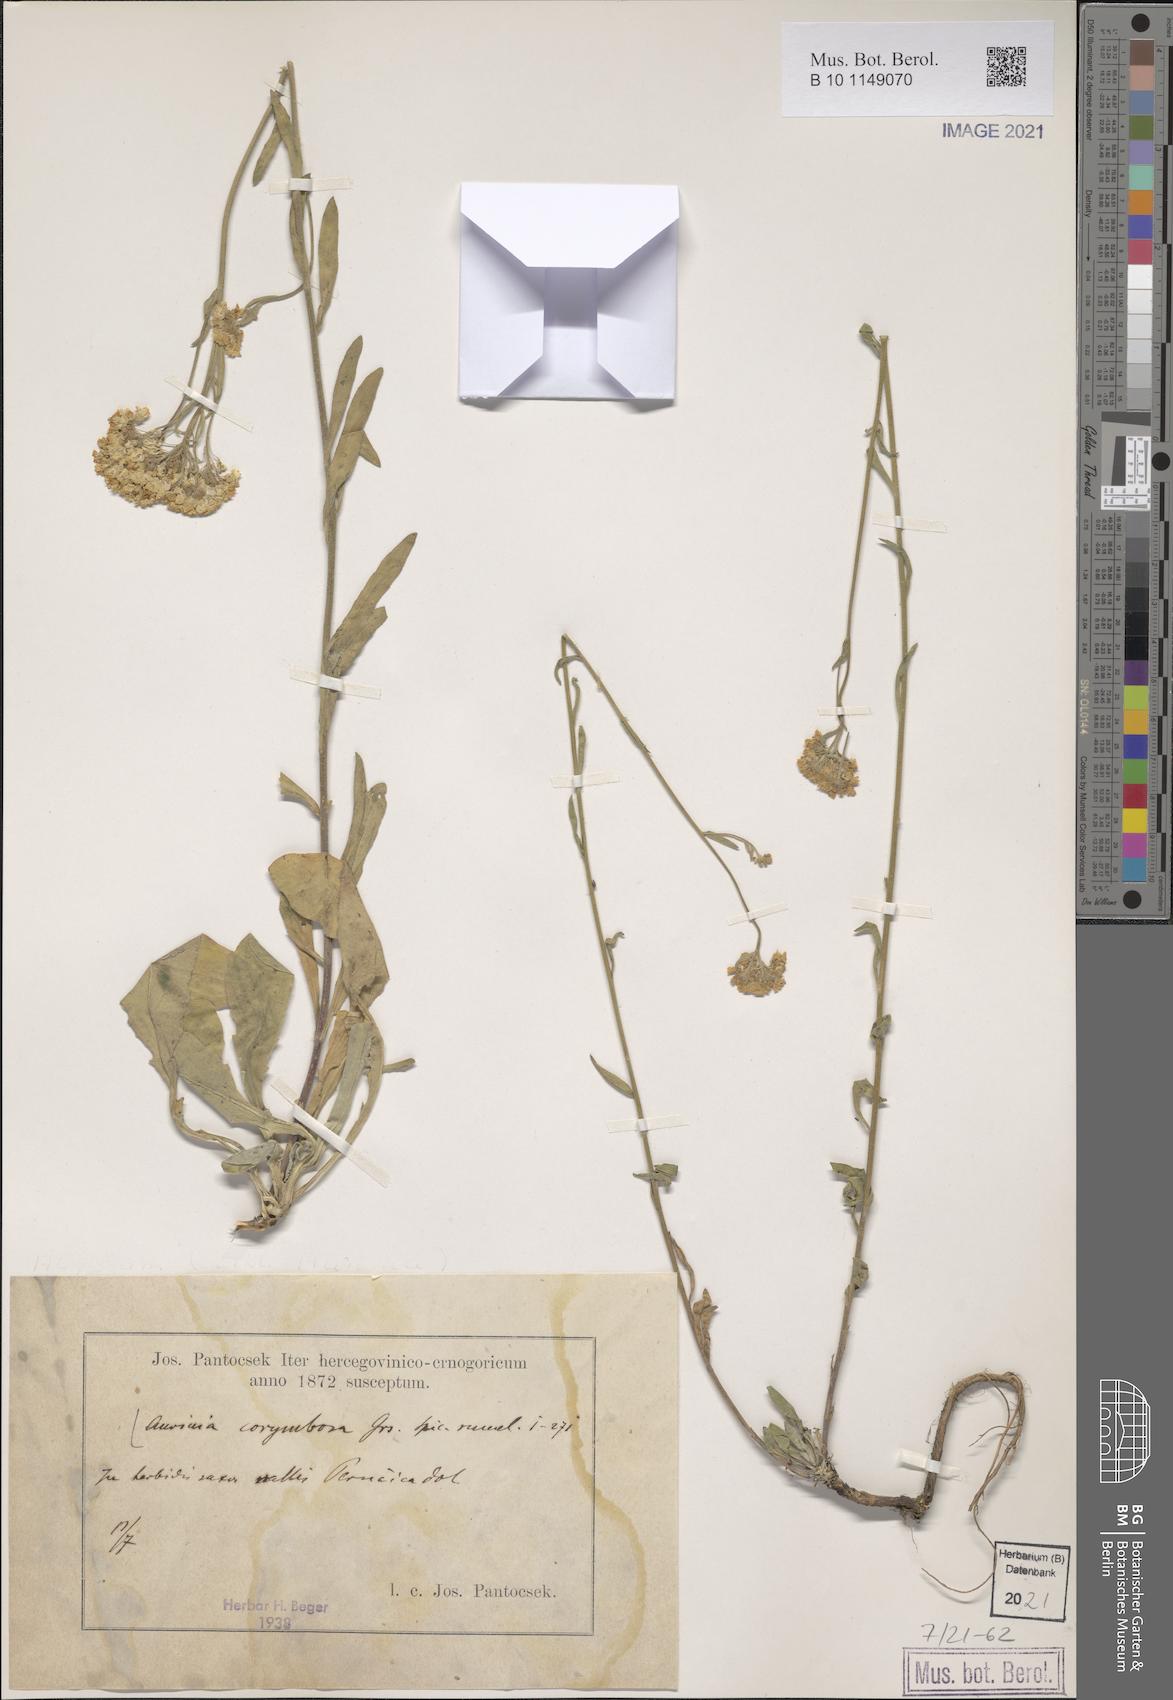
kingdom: Plantae
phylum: Tracheophyta
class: Magnoliopsida
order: Brassicales
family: Brassicaceae
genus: Aurinia
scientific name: Aurinia corymbosa
